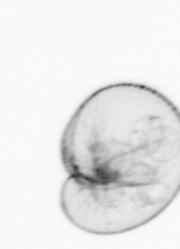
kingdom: Chromista
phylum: Myzozoa
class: Dinophyceae
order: Noctilucales
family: Noctilucaceae
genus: Noctiluca
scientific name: Noctiluca scintillans
